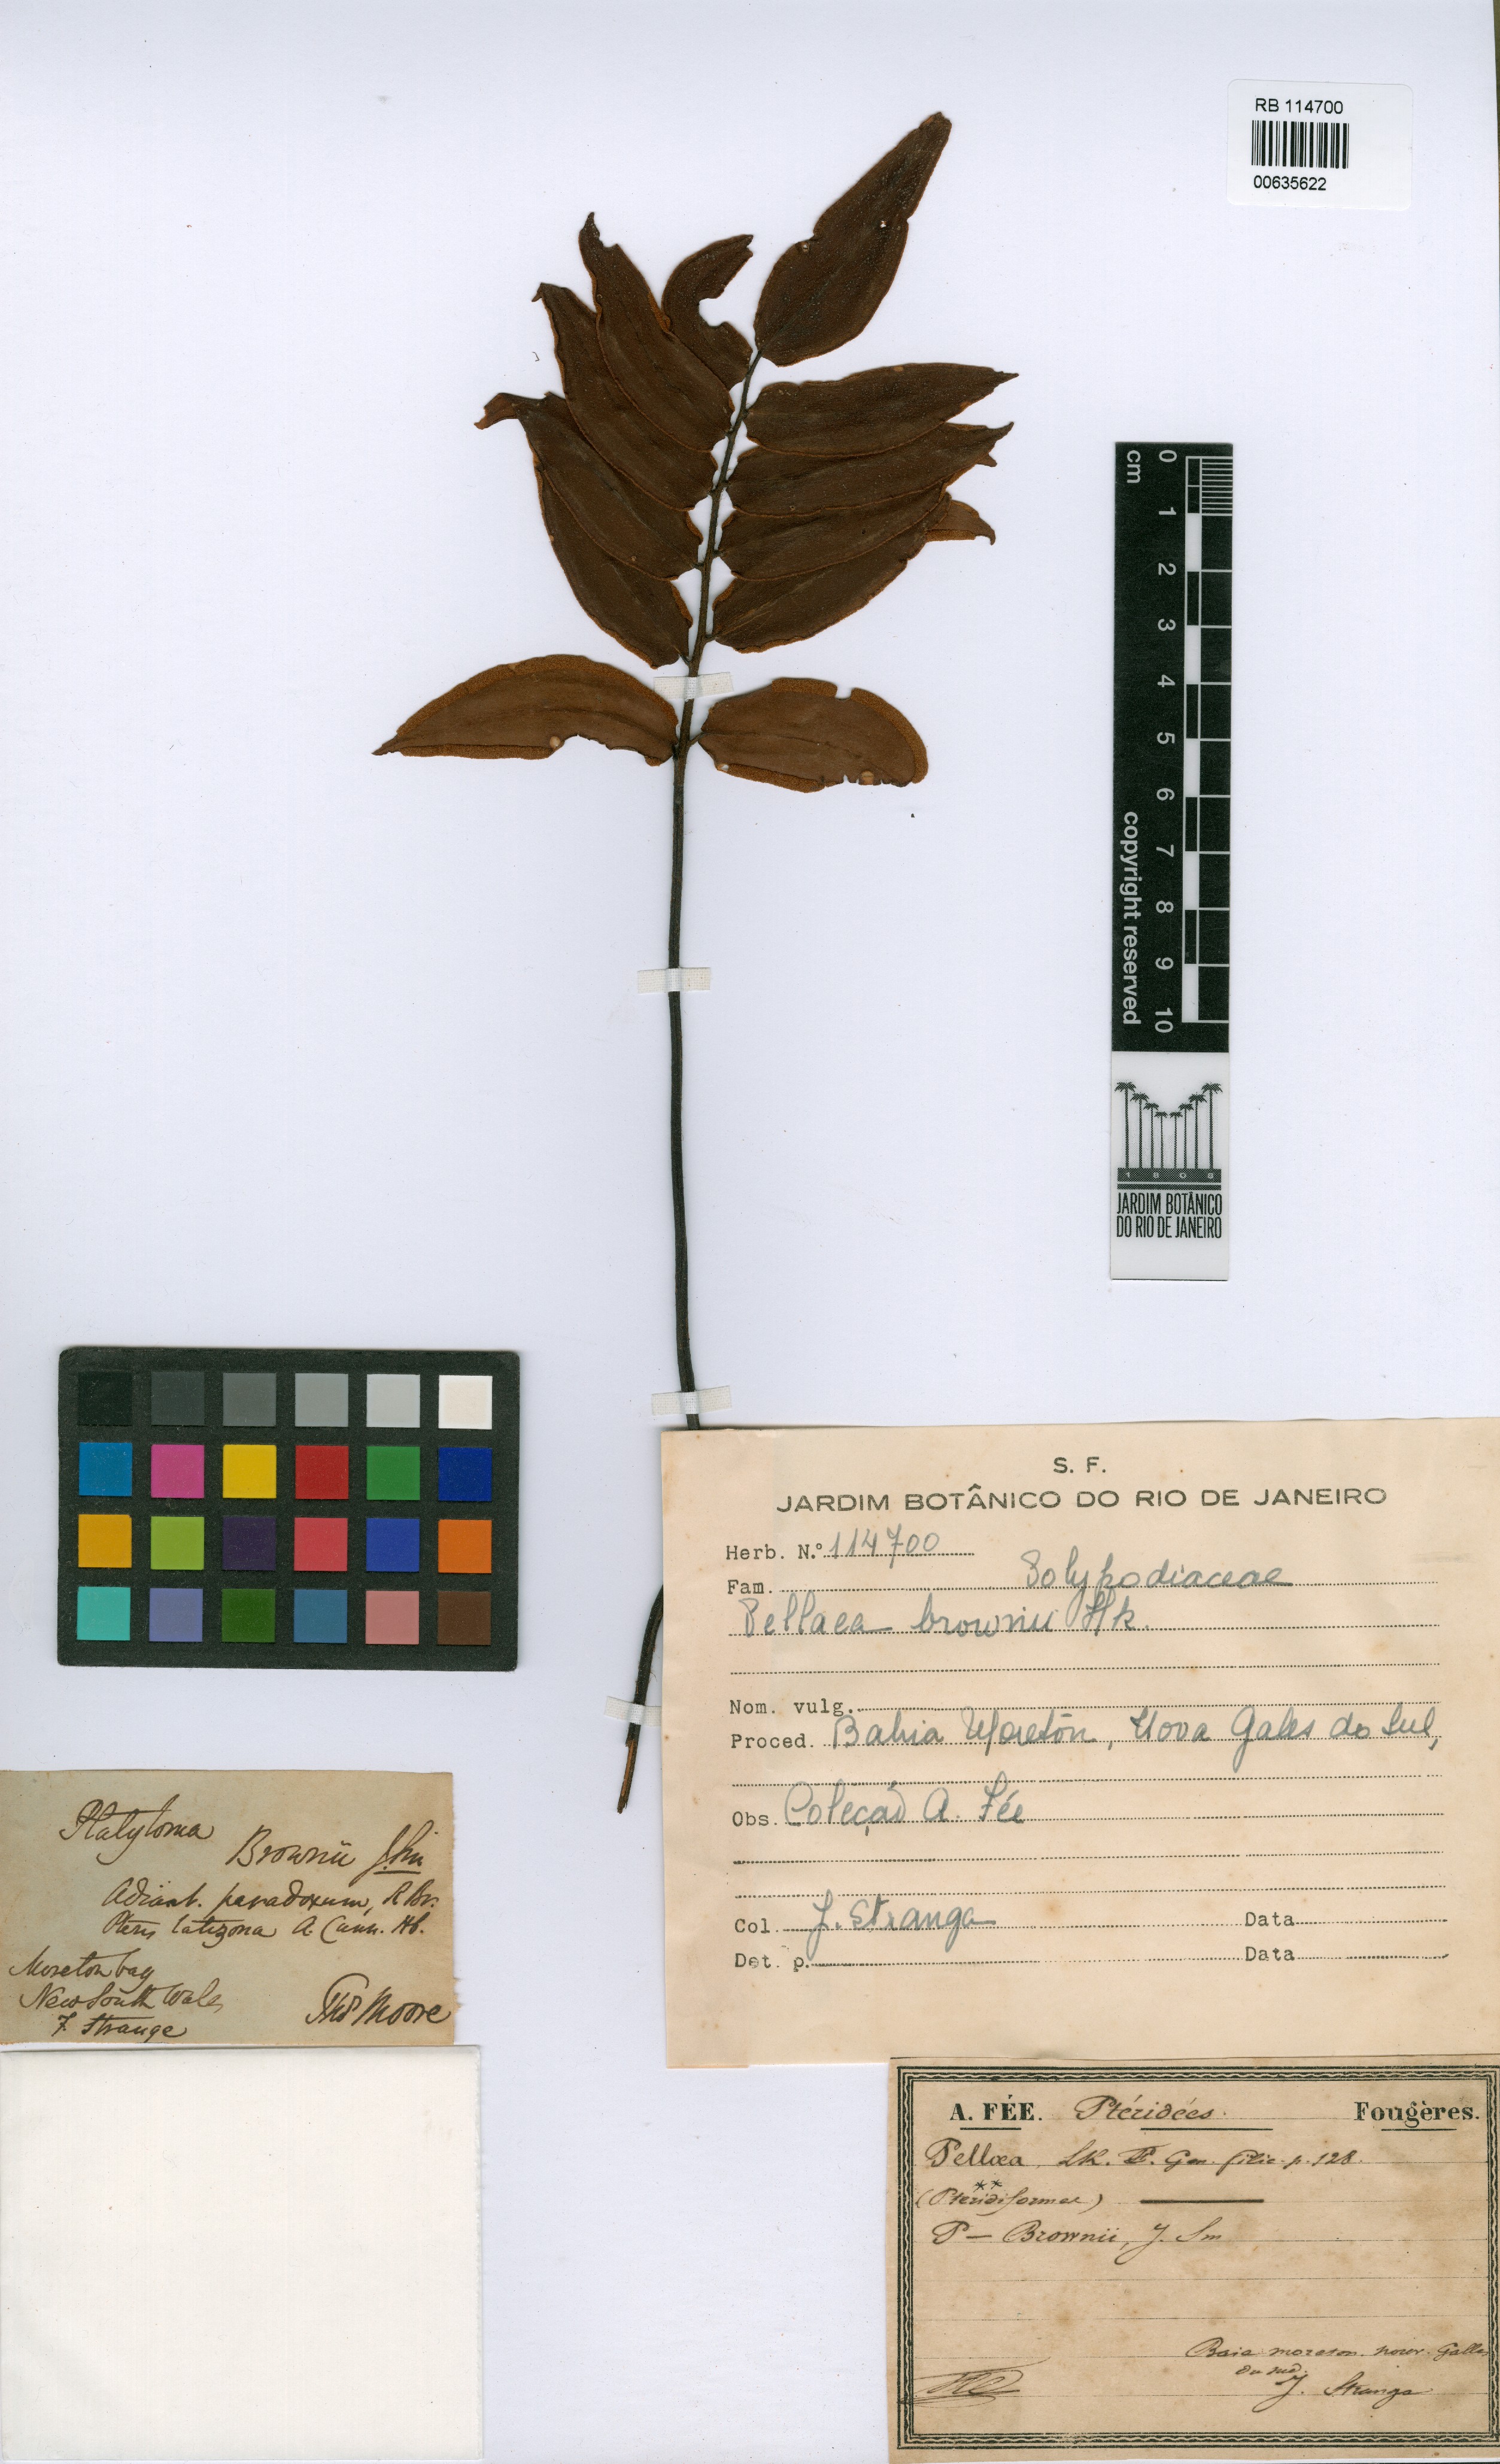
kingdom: Plantae
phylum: Tracheophyta
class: Polypodiopsida
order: Polypodiales
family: Pteridaceae
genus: Pellaea
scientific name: Pellaea
